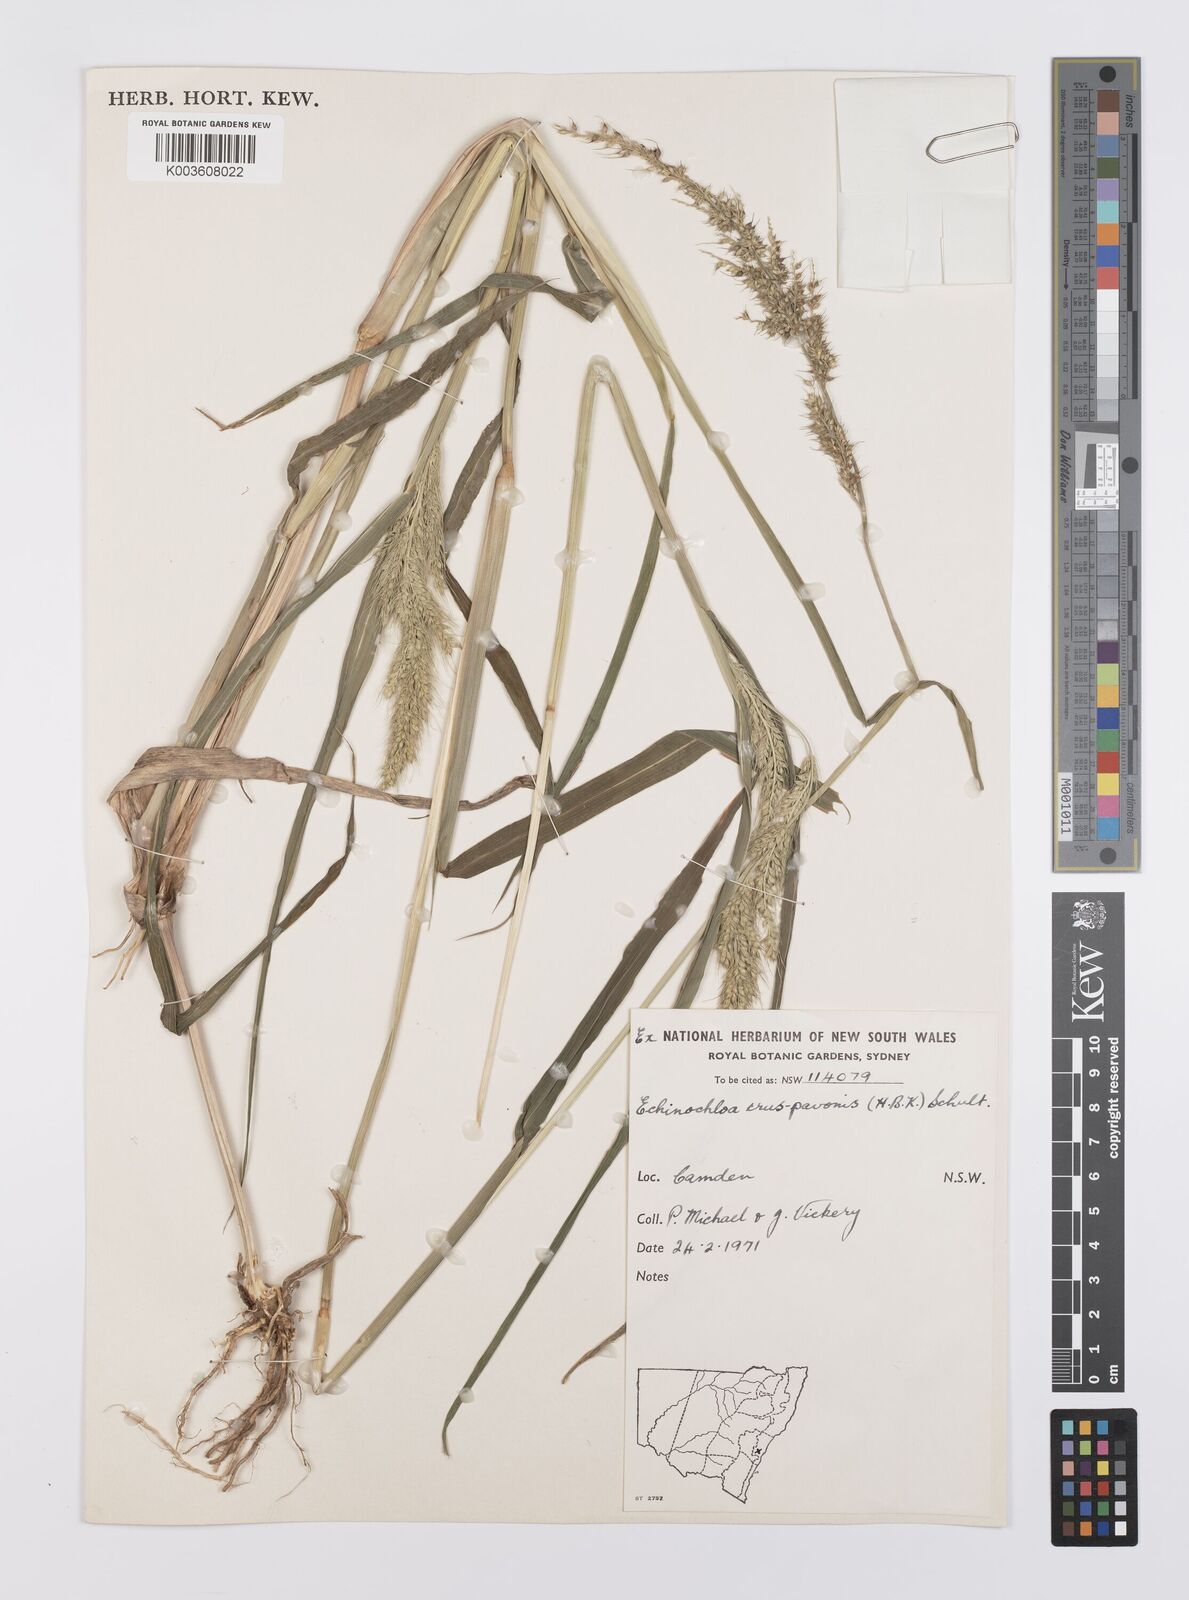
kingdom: Plantae
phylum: Tracheophyta
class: Liliopsida
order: Poales
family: Poaceae
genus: Echinochloa
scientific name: Echinochloa crus-galli
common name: Cockspur
